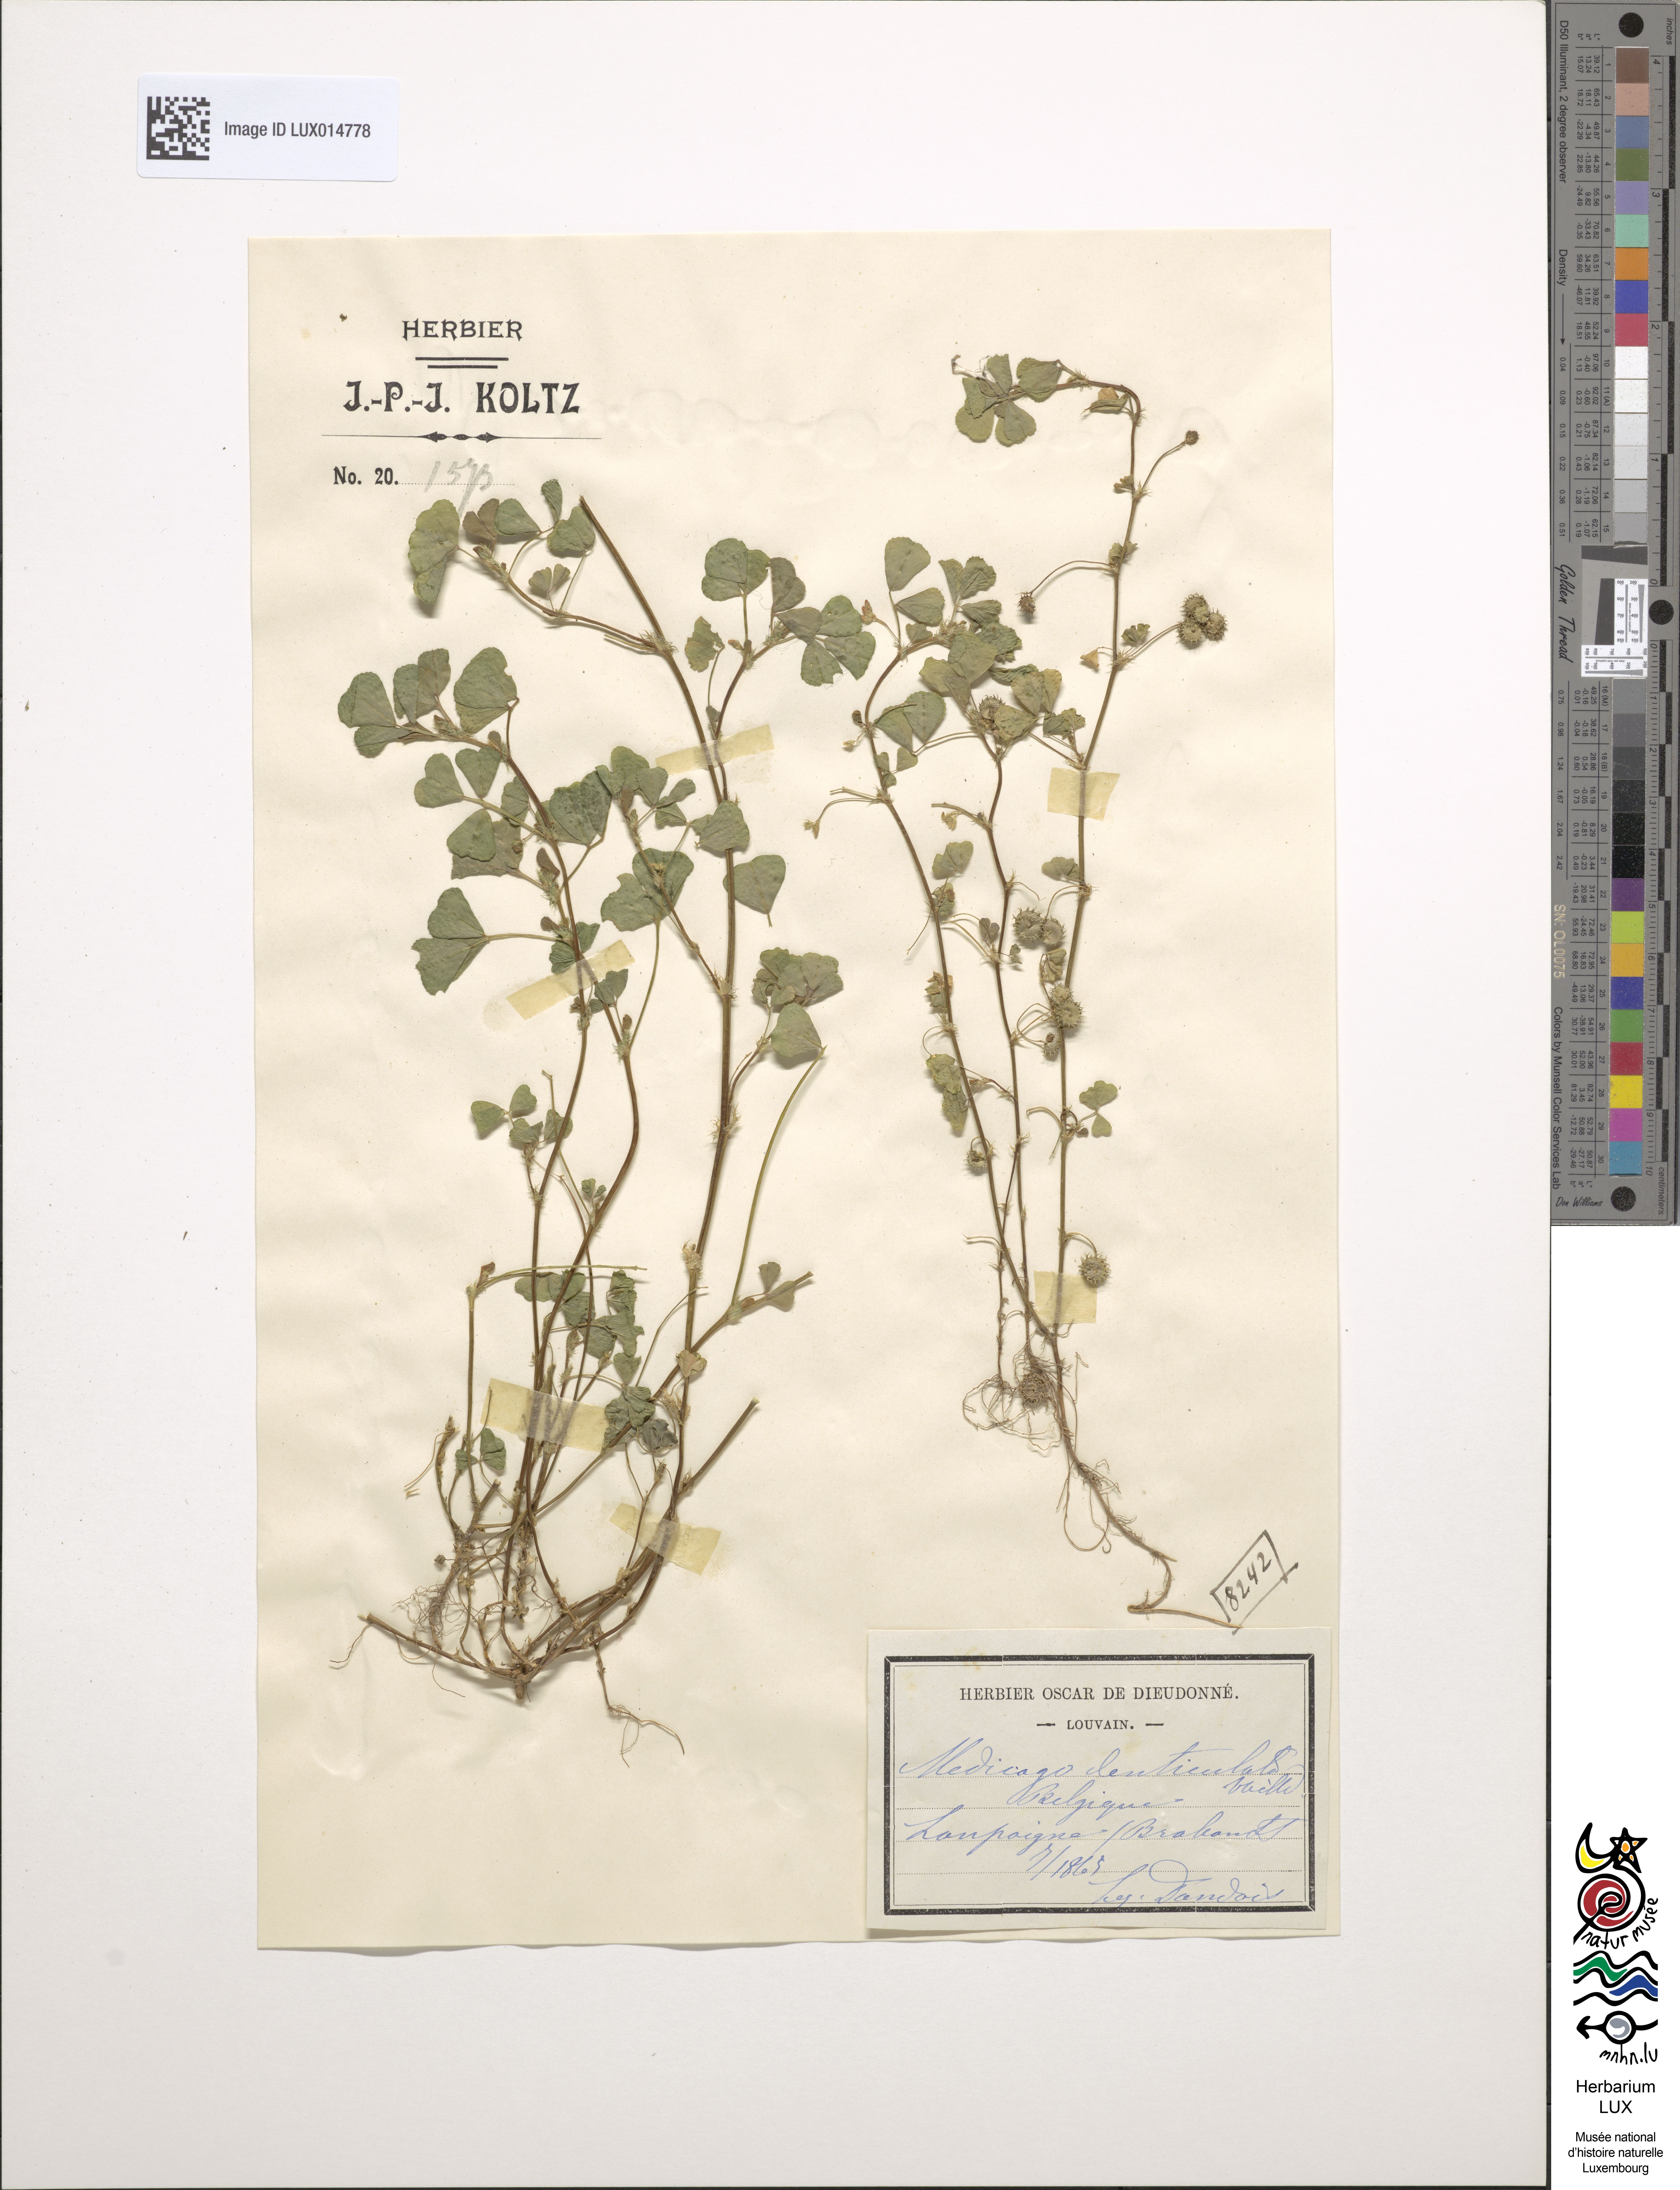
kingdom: Plantae
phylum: Tracheophyta
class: Magnoliopsida
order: Fabales
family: Fabaceae
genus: Medicago
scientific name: Medicago polymorpha
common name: Burclover
